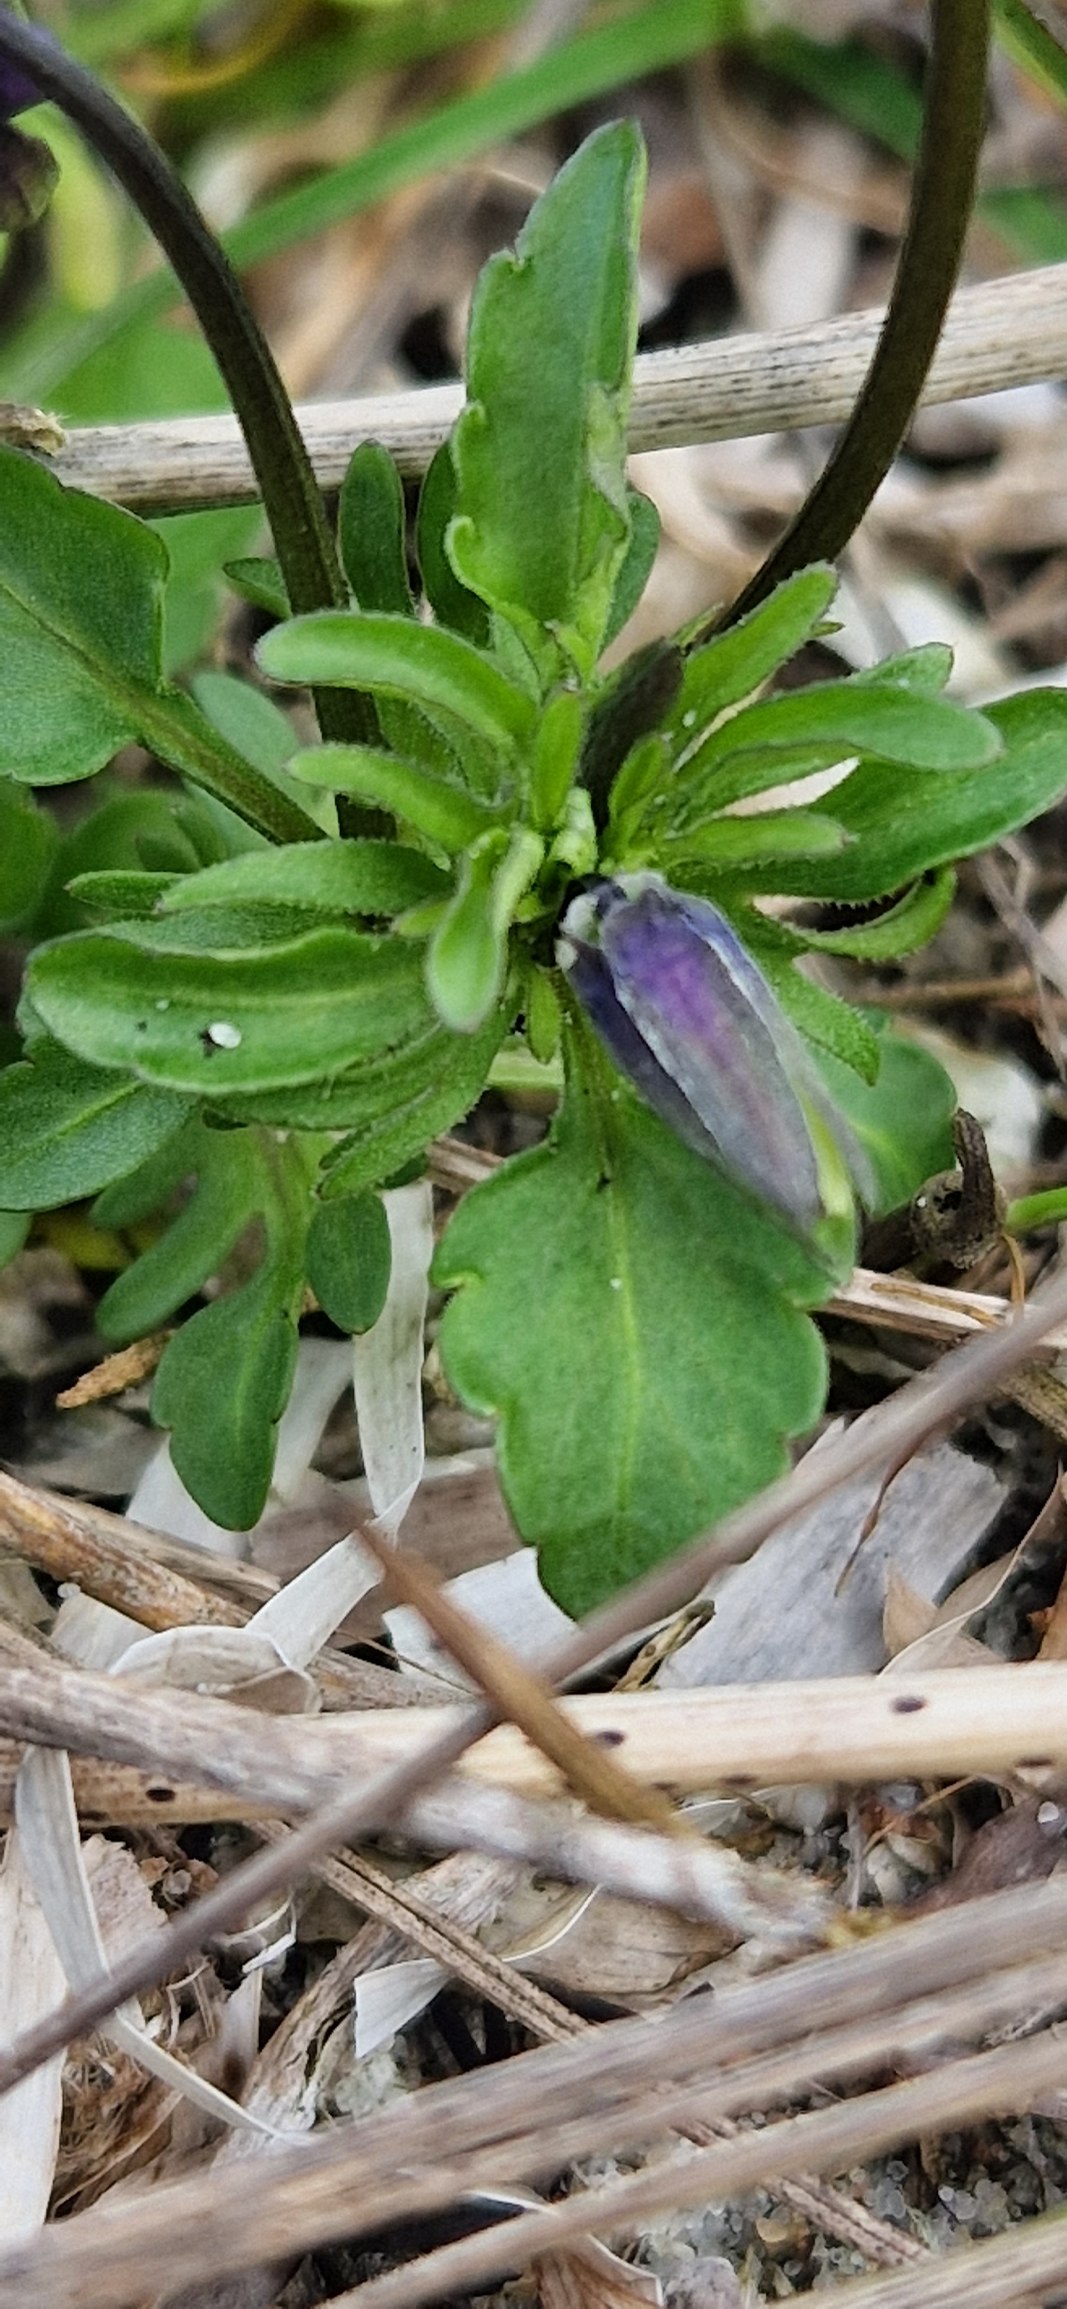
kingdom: Plantae
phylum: Tracheophyta
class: Magnoliopsida
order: Malpighiales
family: Violaceae
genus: Viola
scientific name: Viola tricolor
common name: Stedmoderblomst
